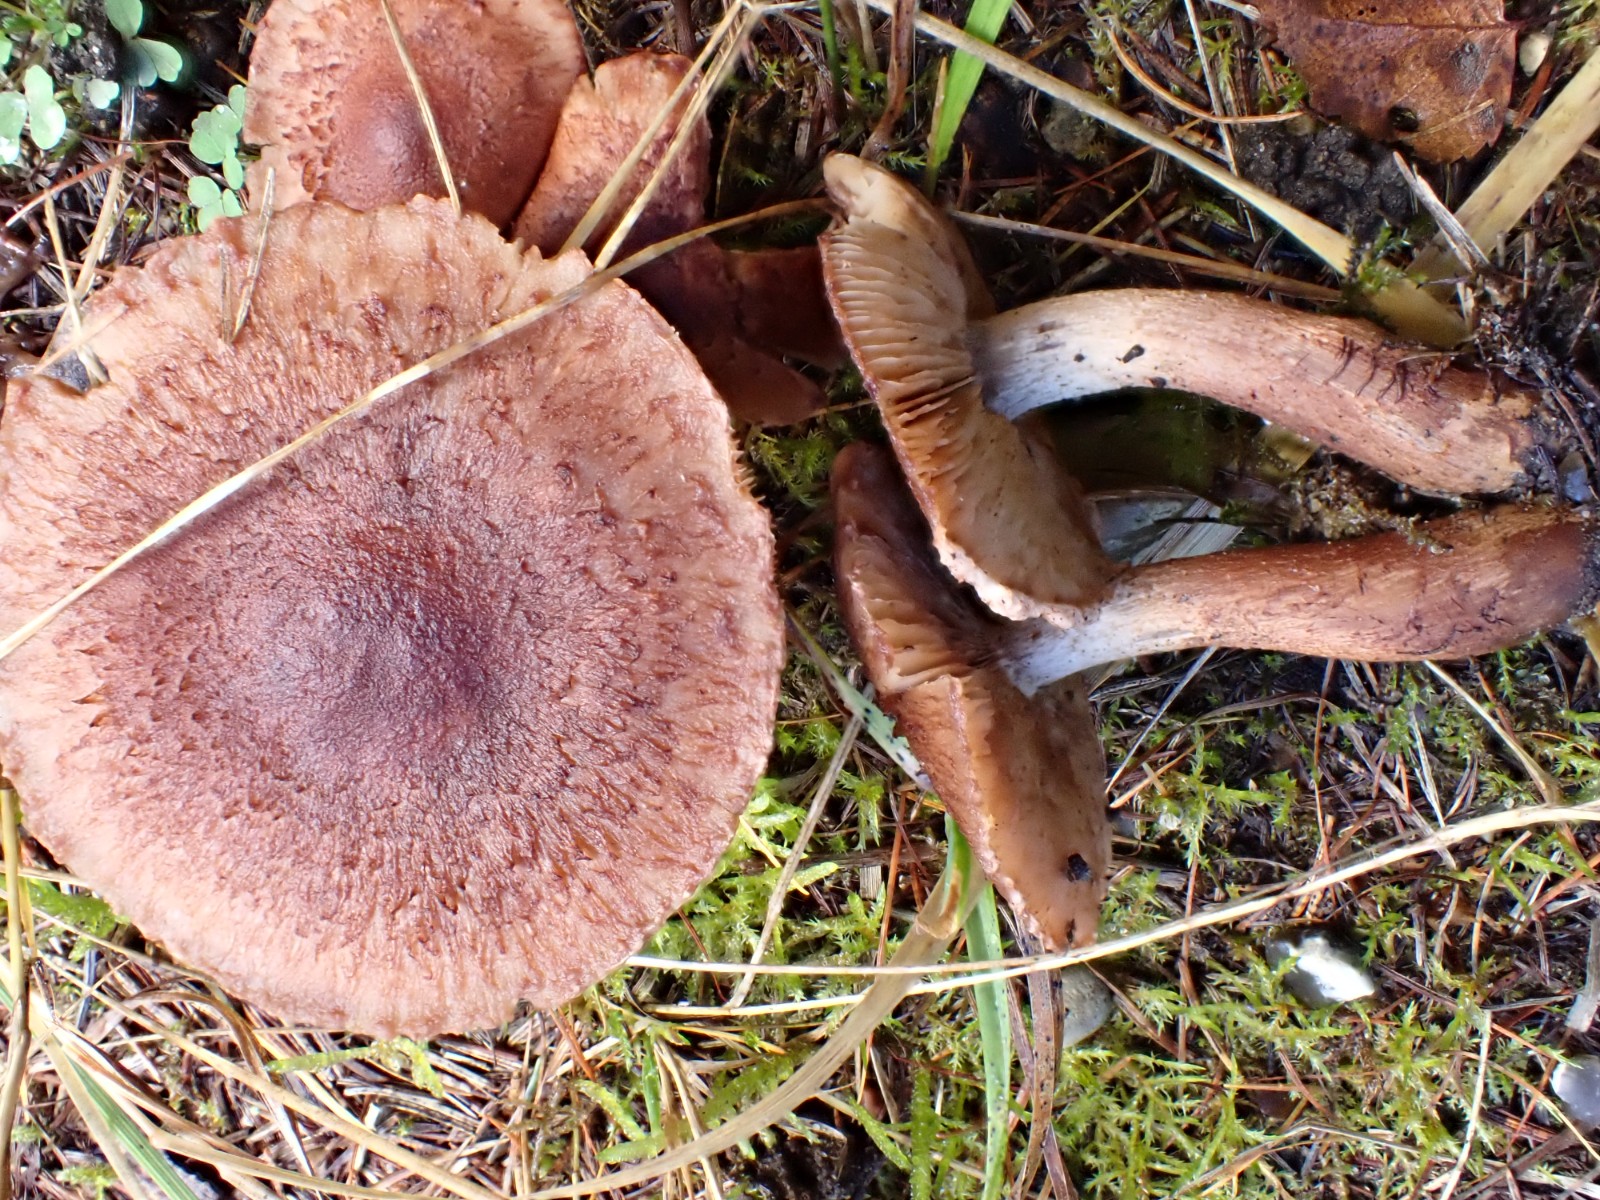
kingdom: Fungi
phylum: Basidiomycota
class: Agaricomycetes
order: Agaricales
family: Tricholomataceae
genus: Tricholoma
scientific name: Tricholoma vaccinum
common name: ko-ridderhat
